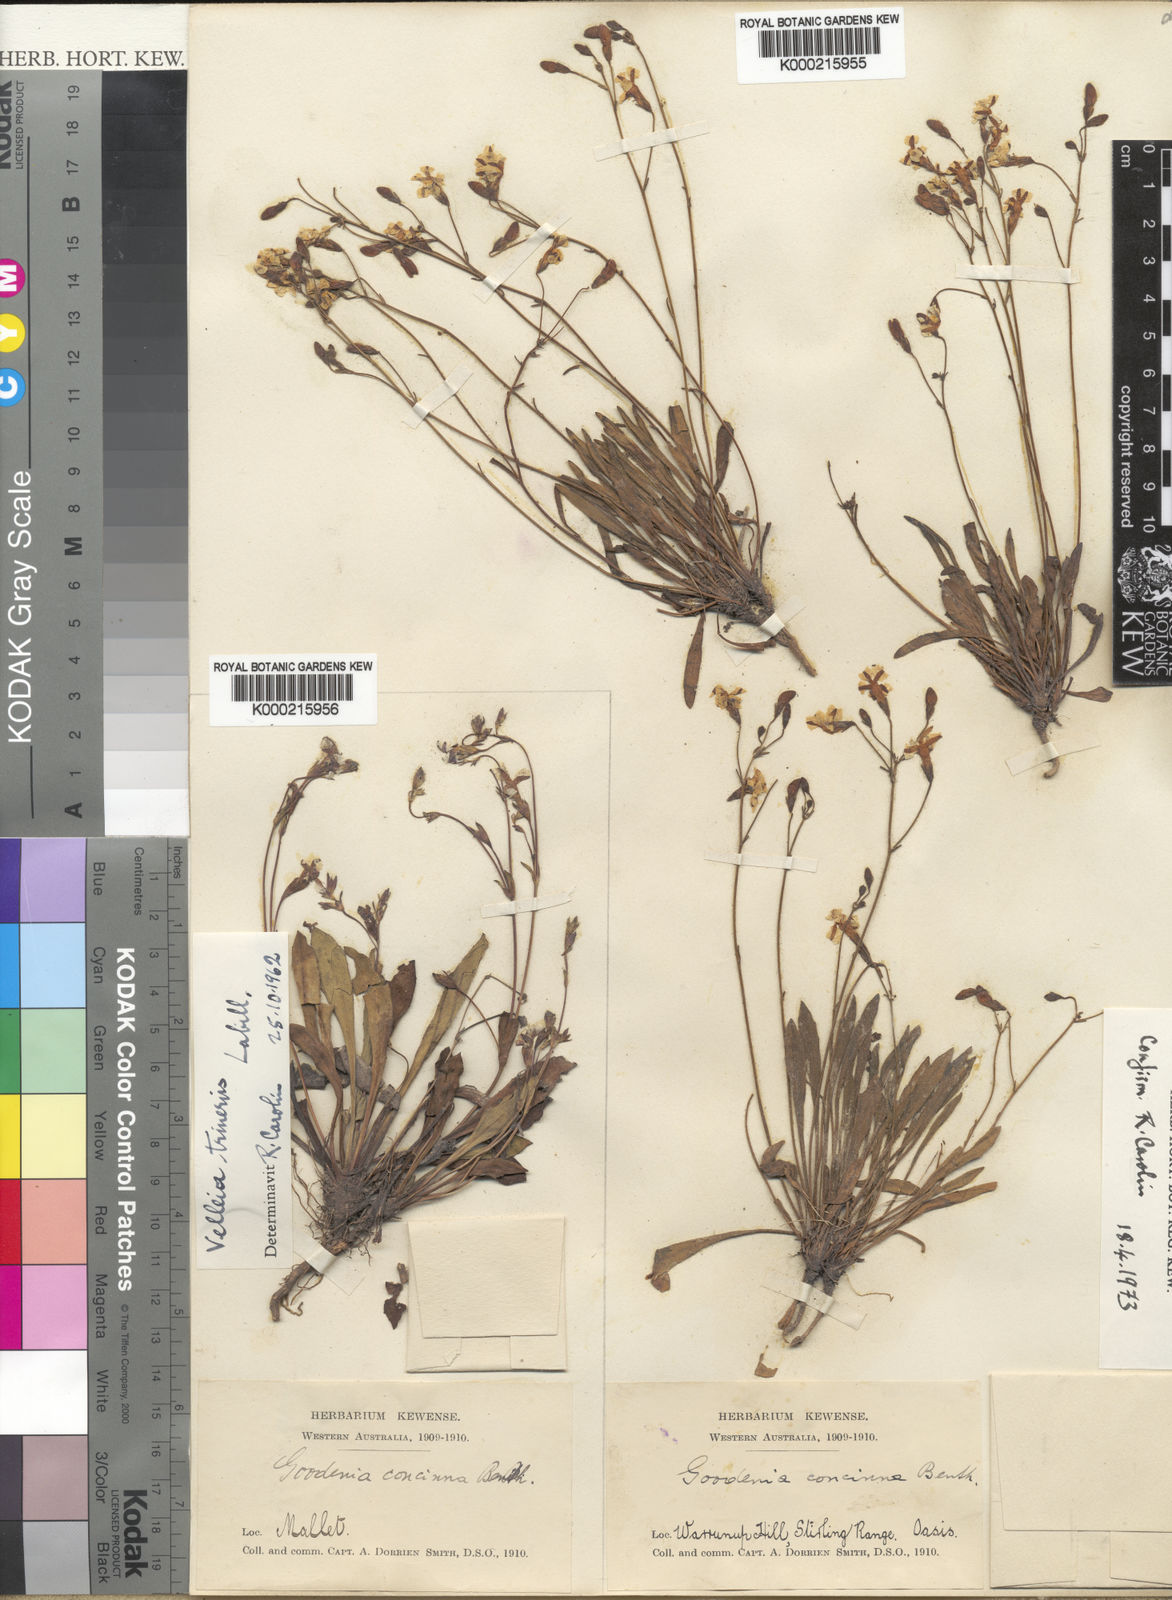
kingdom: Plantae
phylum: Tracheophyta
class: Magnoliopsida
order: Asterales
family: Goodeniaceae
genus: Goodenia
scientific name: Goodenia trinervis
